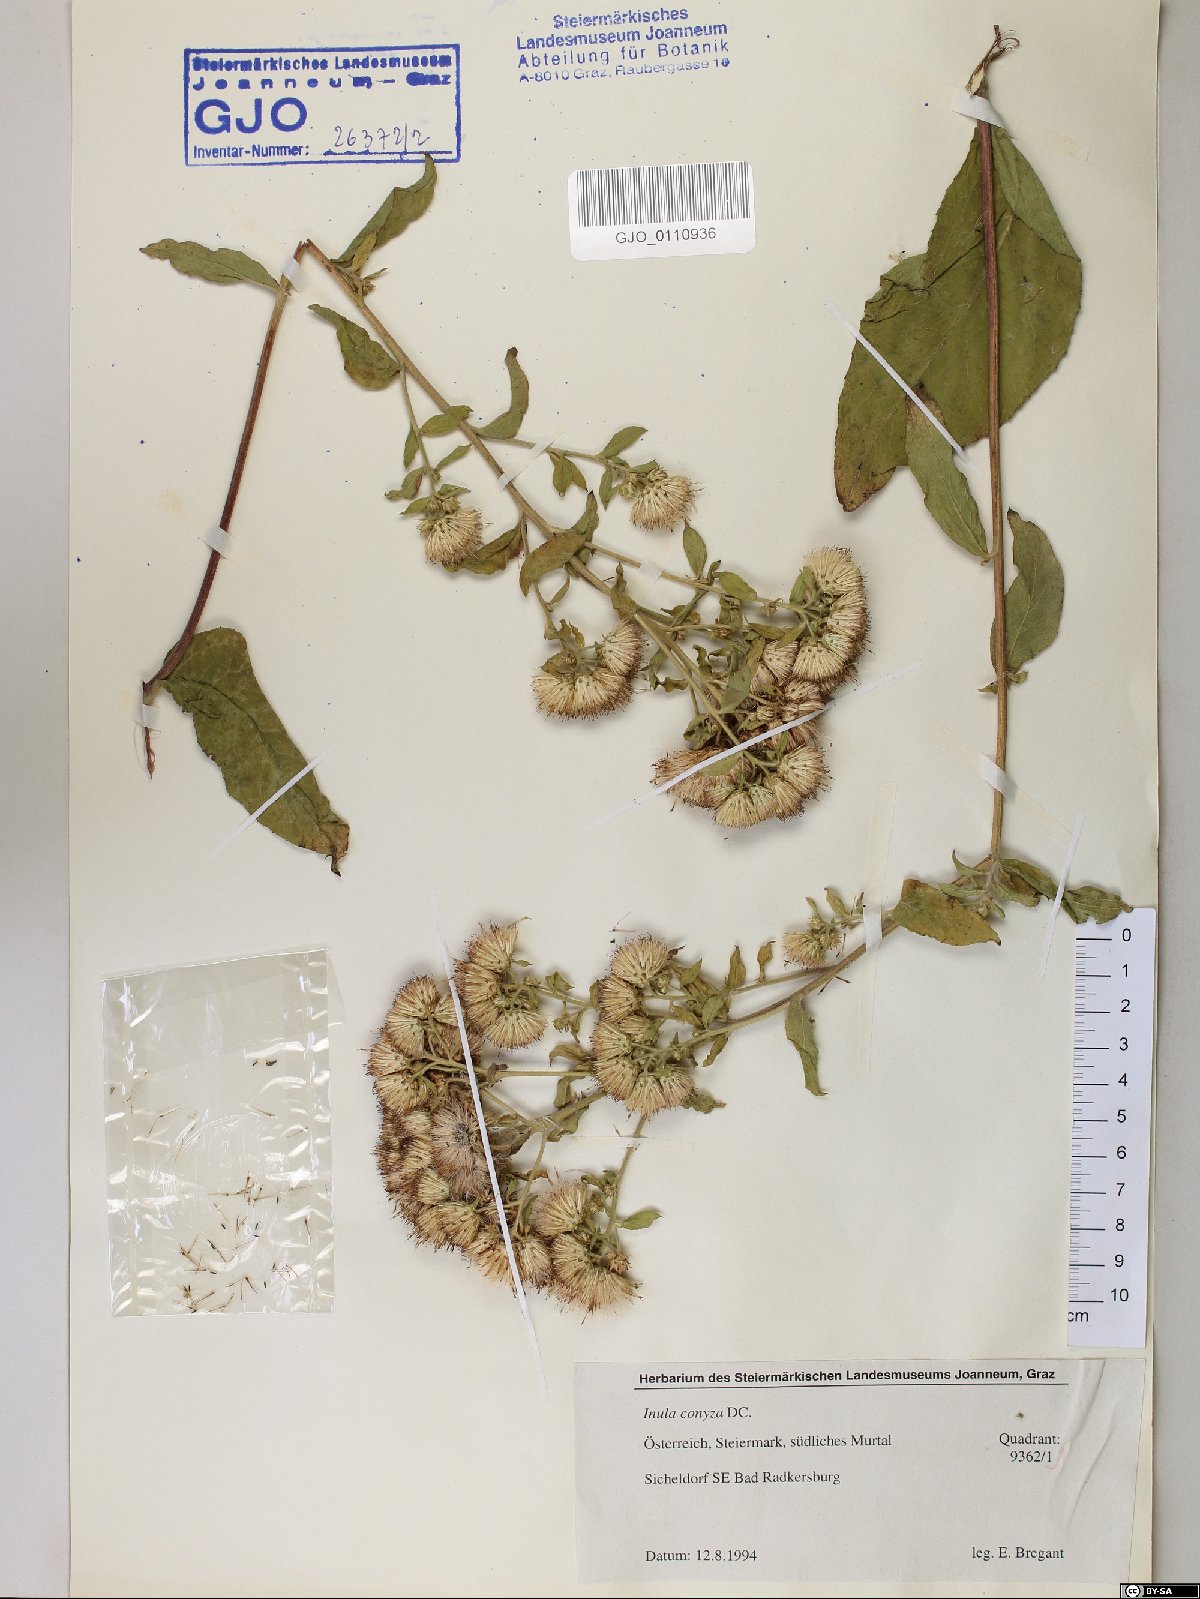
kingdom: Plantae
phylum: Tracheophyta
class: Magnoliopsida
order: Asterales
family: Asteraceae
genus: Pentanema
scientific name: Pentanema squarrosum
